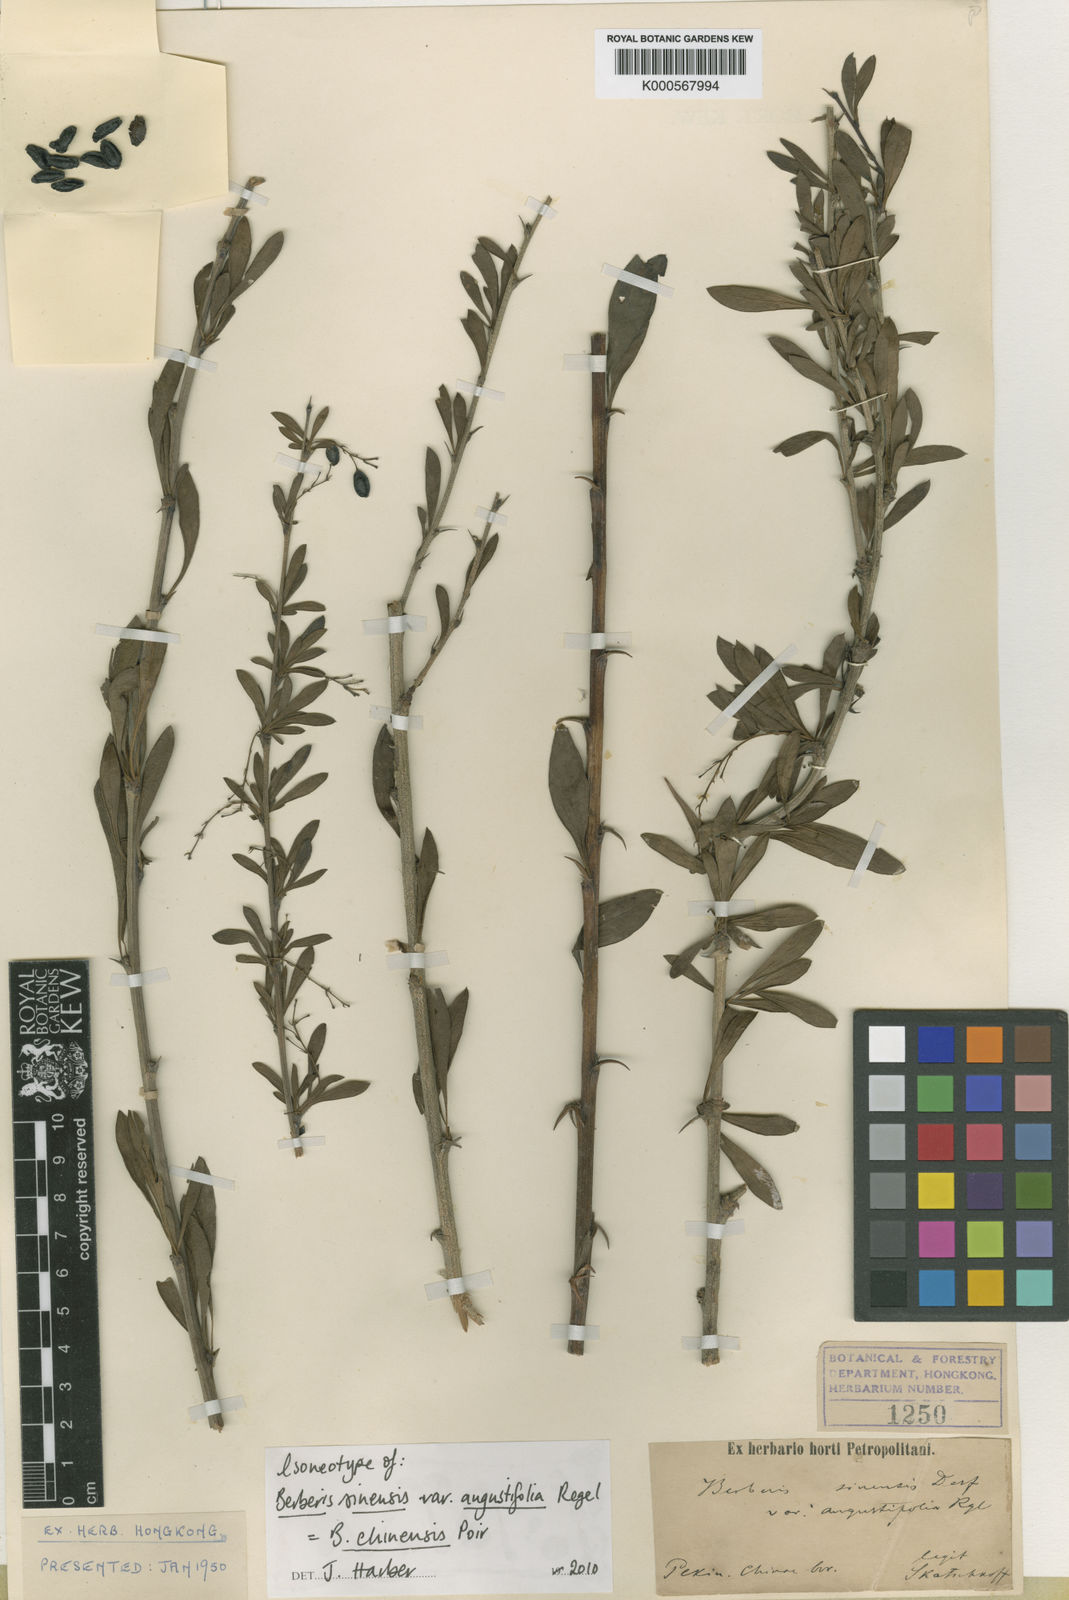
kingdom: Plantae
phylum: Tracheophyta
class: Magnoliopsida
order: Ranunculales
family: Berberidaceae
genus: Berberis
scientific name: Berberis chinensis
